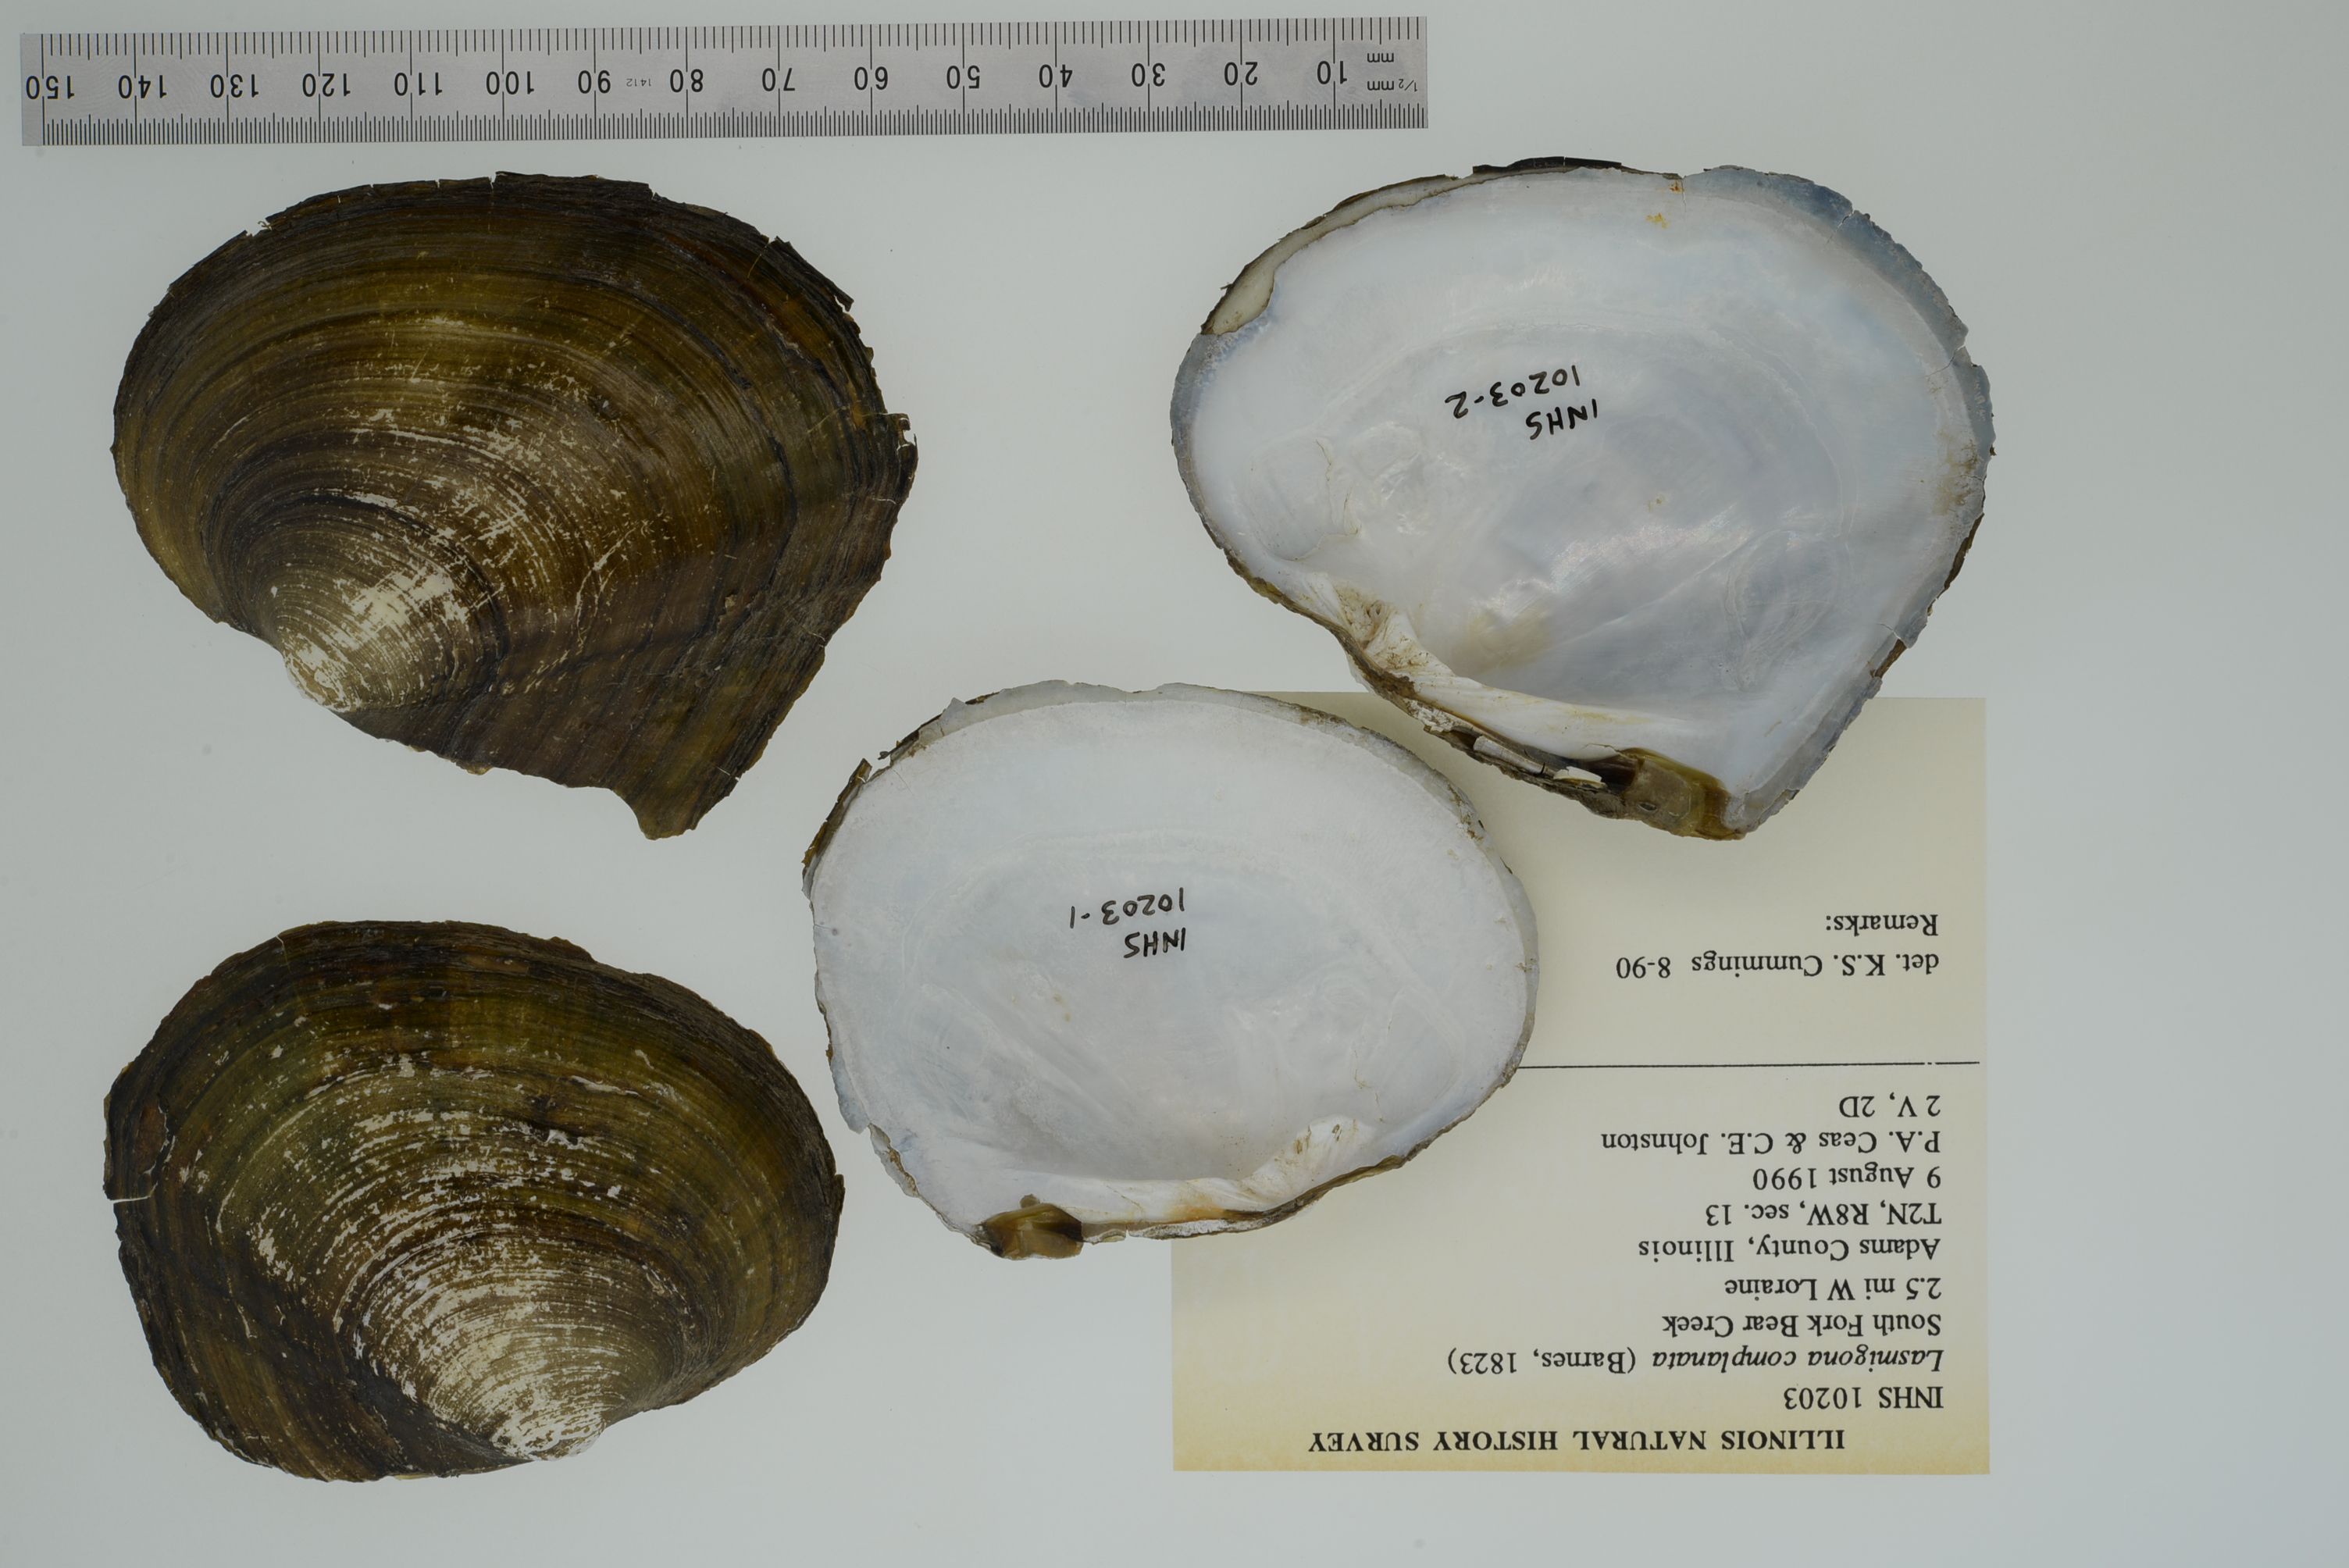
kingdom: Animalia
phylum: Mollusca
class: Bivalvia
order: Unionida
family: Unionidae
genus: Lasmigona
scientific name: Lasmigona complanata
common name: White heelsplitter
